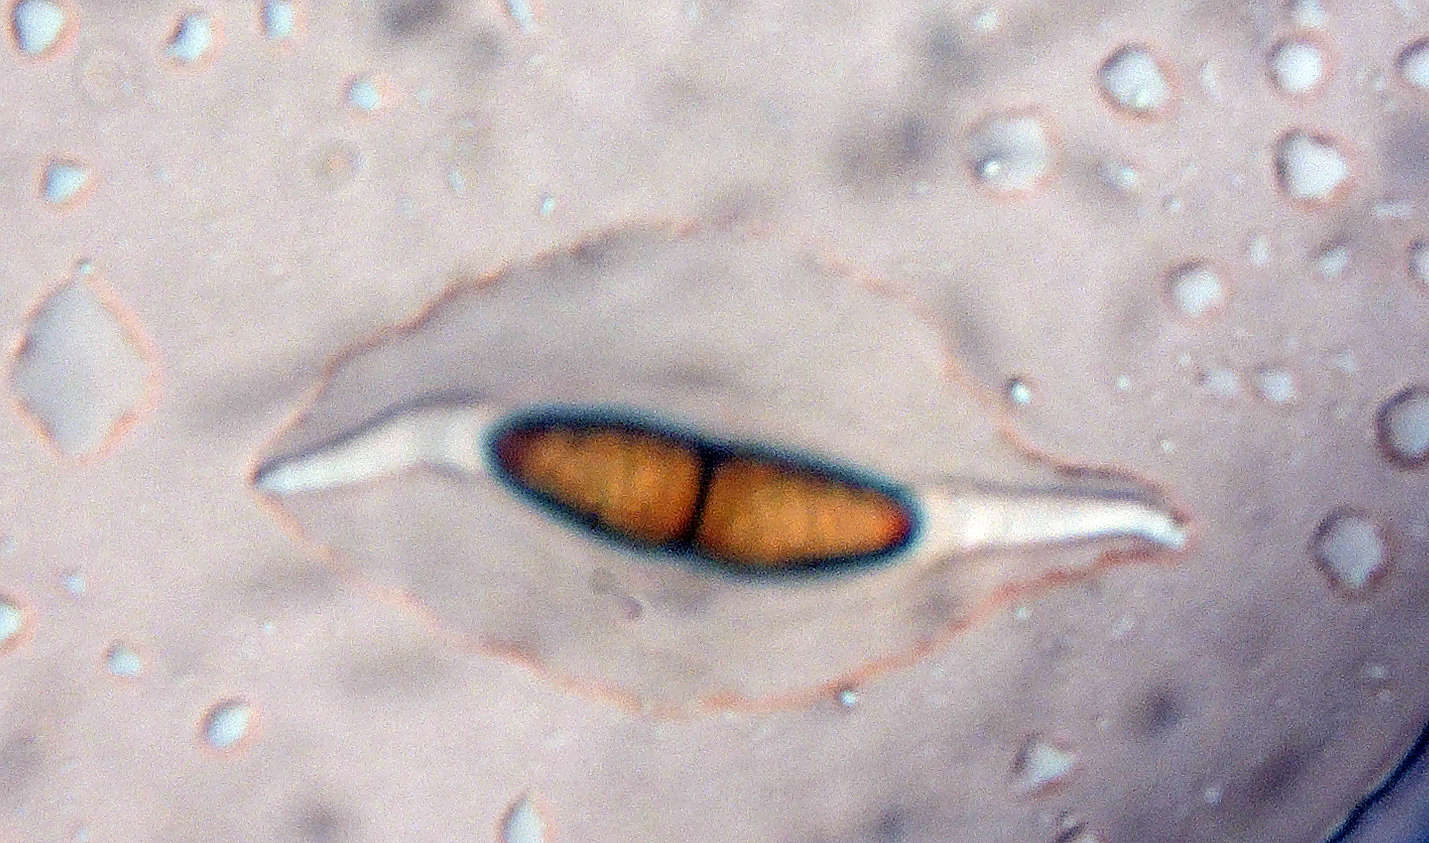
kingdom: Fungi
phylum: Ascomycota
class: Sordariomycetes
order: Amphisphaeriales
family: Amphisphaeriaceae
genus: Ceriophora
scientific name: Ceriophora palustris
